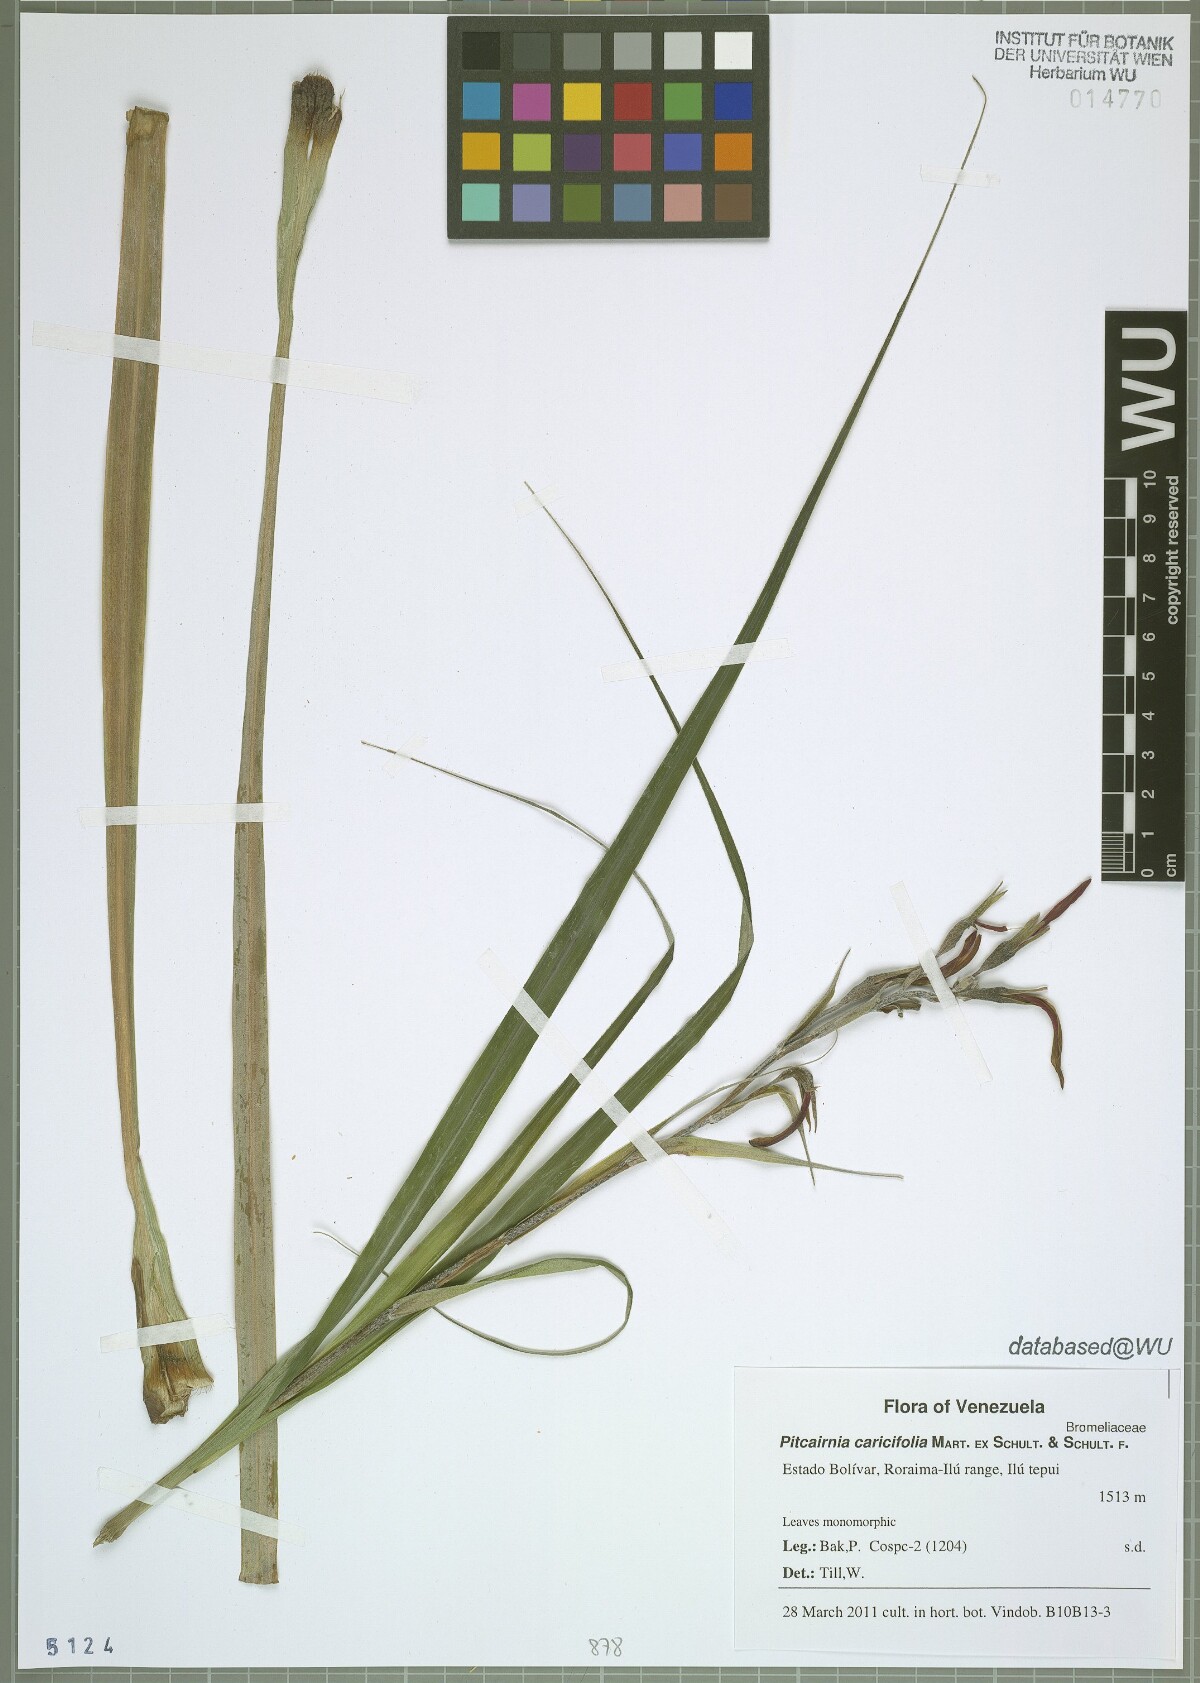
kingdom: Plantae
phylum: Tracheophyta
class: Liliopsida
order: Poales
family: Bromeliaceae
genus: Pitcairnia
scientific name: Pitcairnia caricifolia
